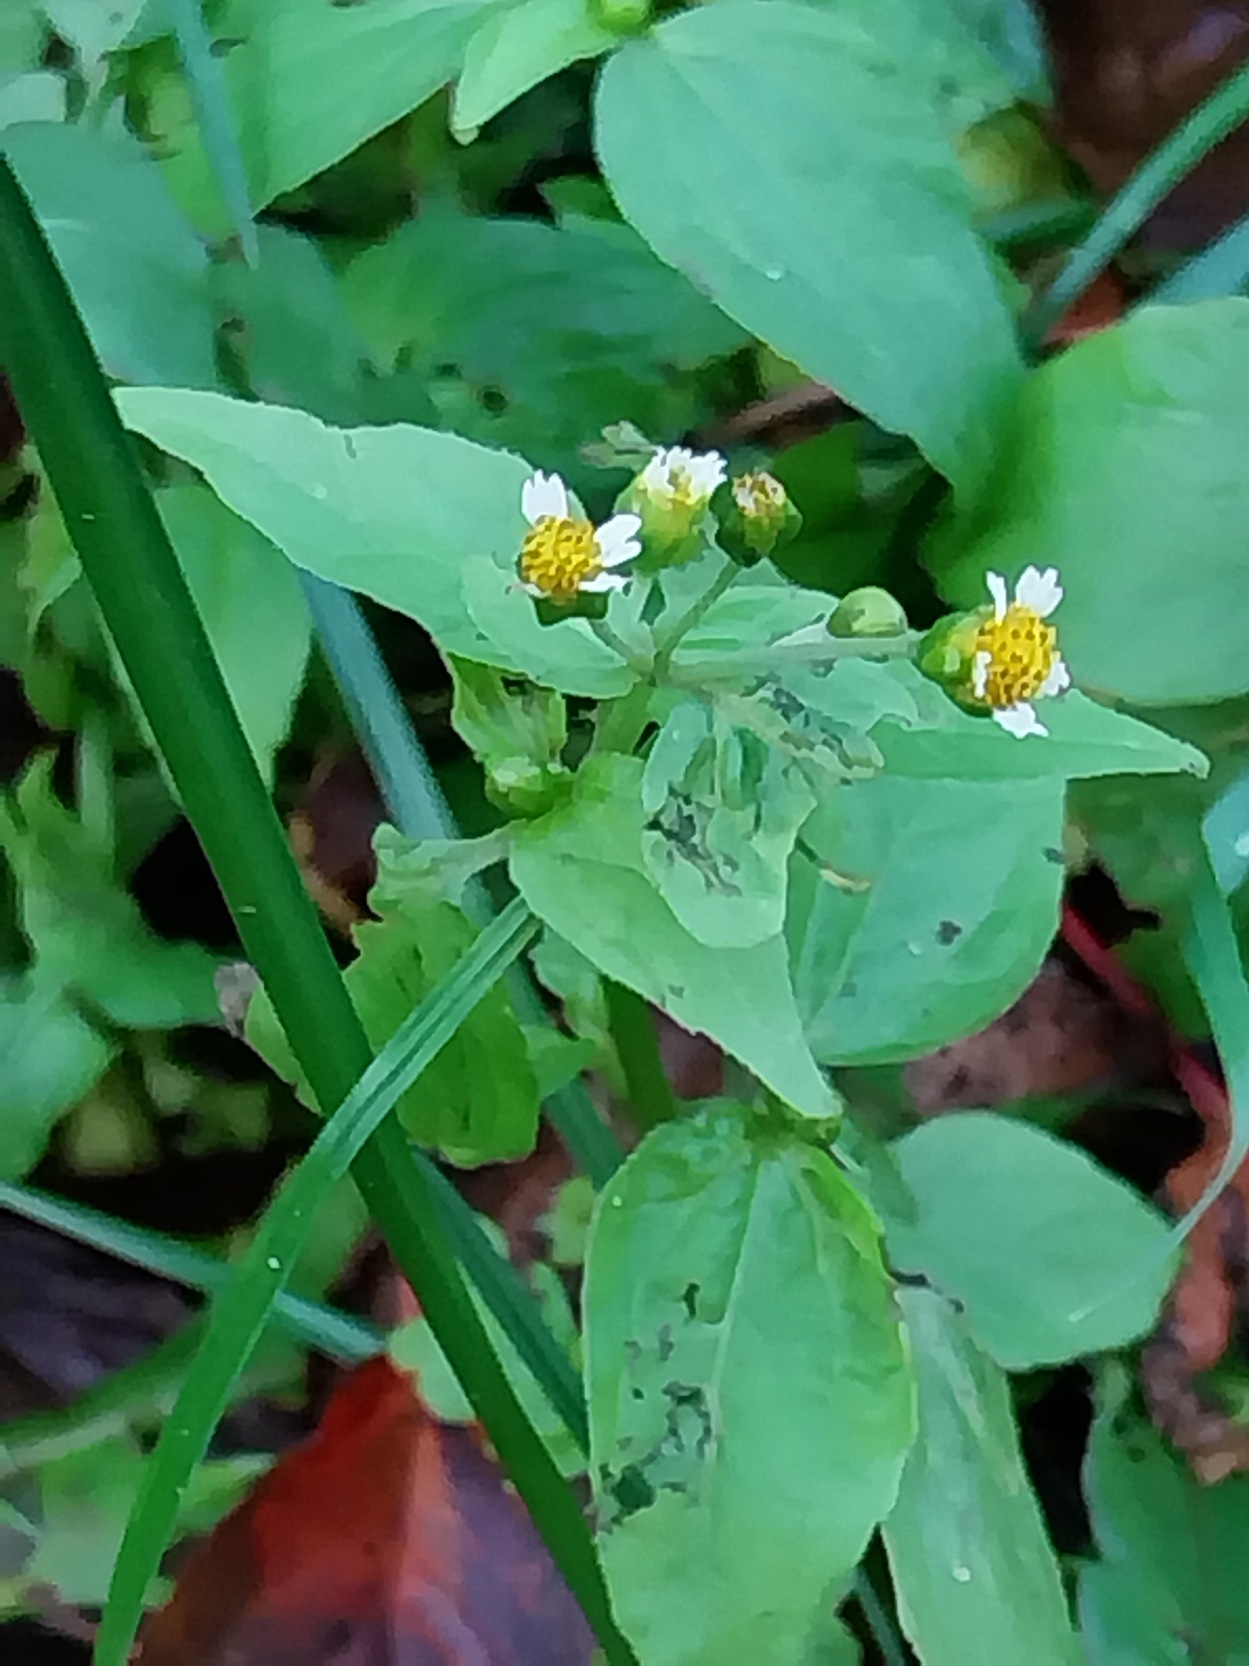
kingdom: Plantae
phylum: Tracheophyta
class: Magnoliopsida
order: Asterales
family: Asteraceae
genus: Galinsoga
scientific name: Galinsoga parviflora
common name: Håret kortstråle
